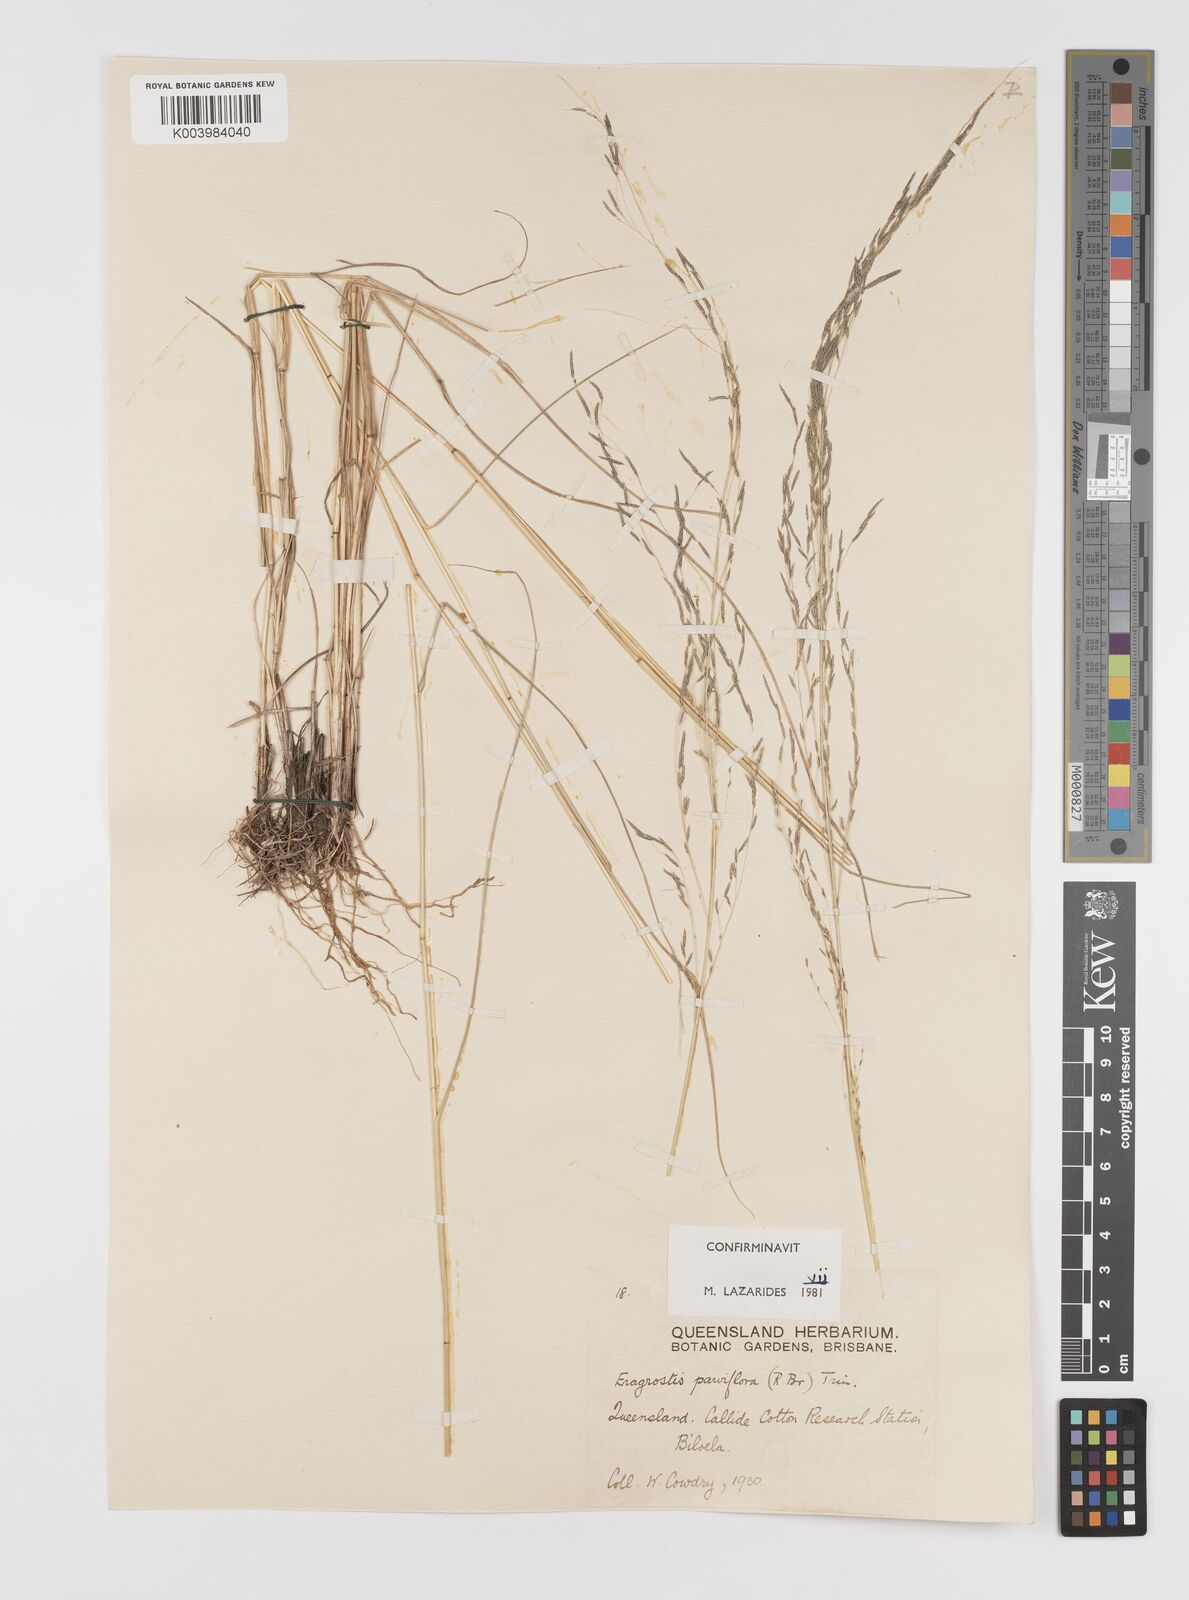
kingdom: Plantae
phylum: Tracheophyta
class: Liliopsida
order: Poales
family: Poaceae
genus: Eragrostis
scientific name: Eragrostis parviflora
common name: Weeping love-grass
